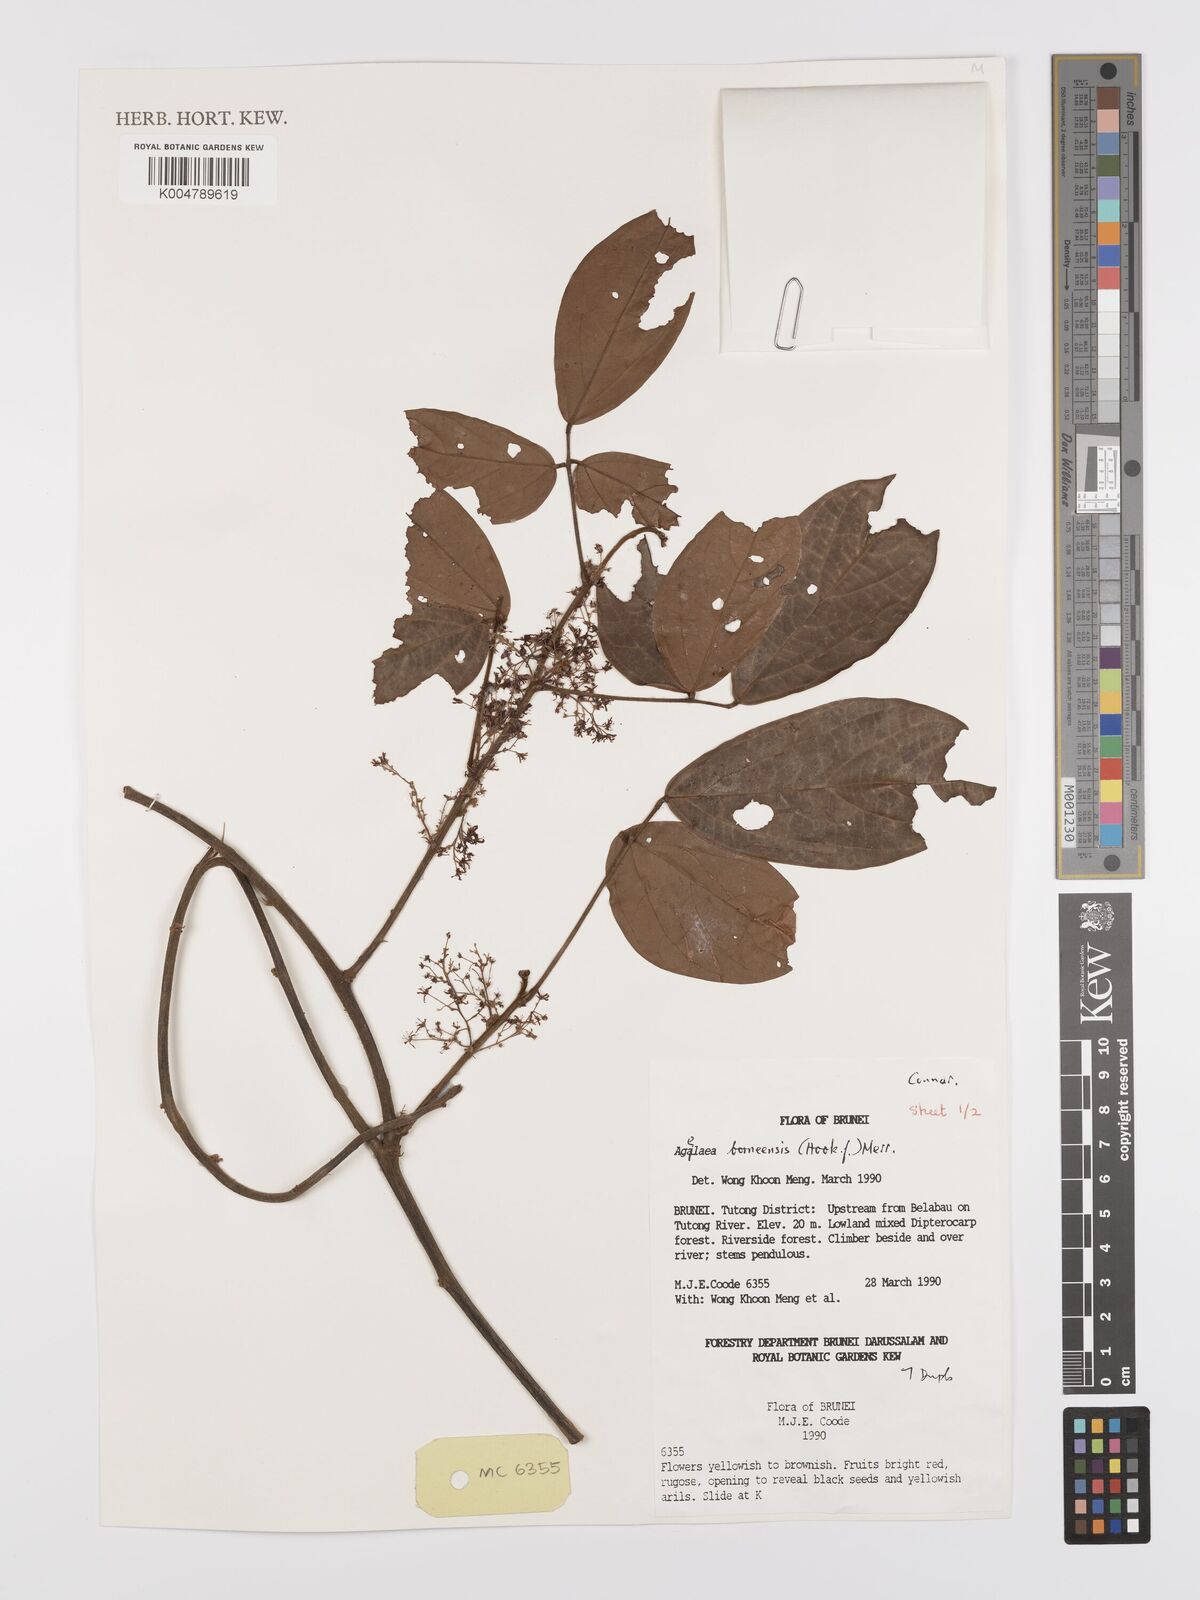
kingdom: Plantae
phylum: Tracheophyta
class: Magnoliopsida
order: Oxalidales
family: Connaraceae
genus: Agelaea
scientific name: Agelaea borneensis
